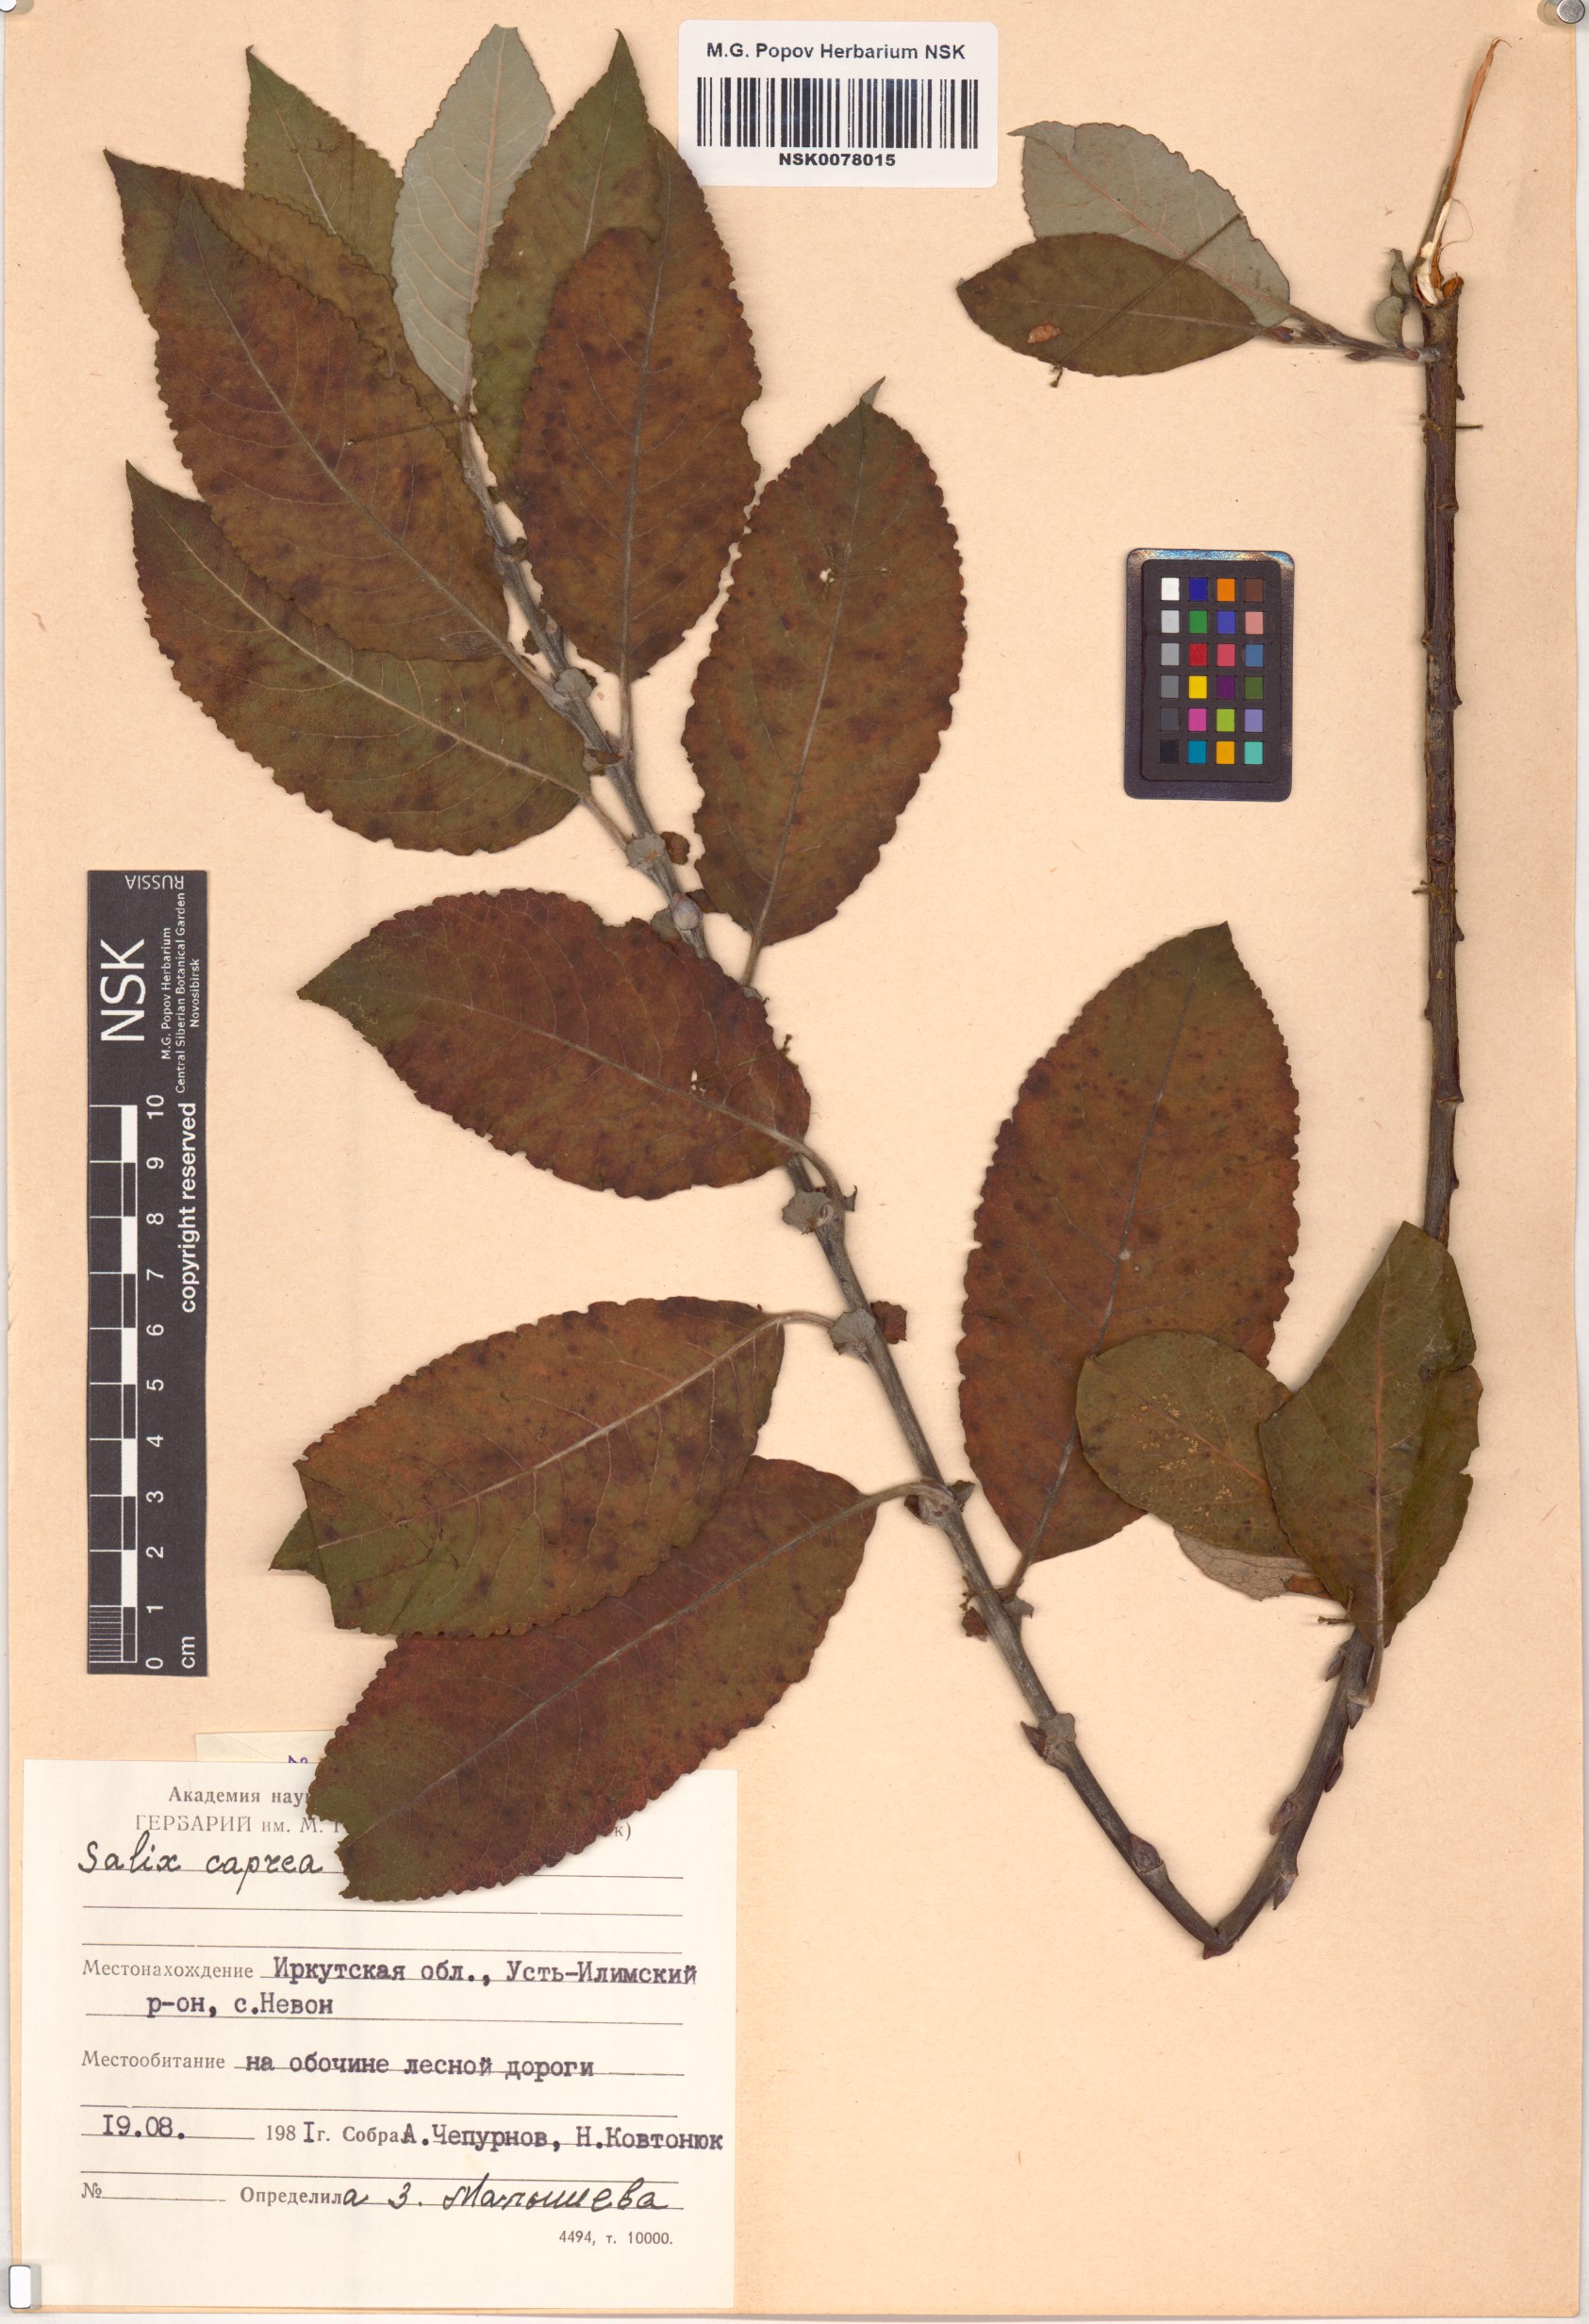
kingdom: Plantae
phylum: Tracheophyta
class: Magnoliopsida
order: Malpighiales
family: Salicaceae
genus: Salix
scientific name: Salix caprea
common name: Goat willow
